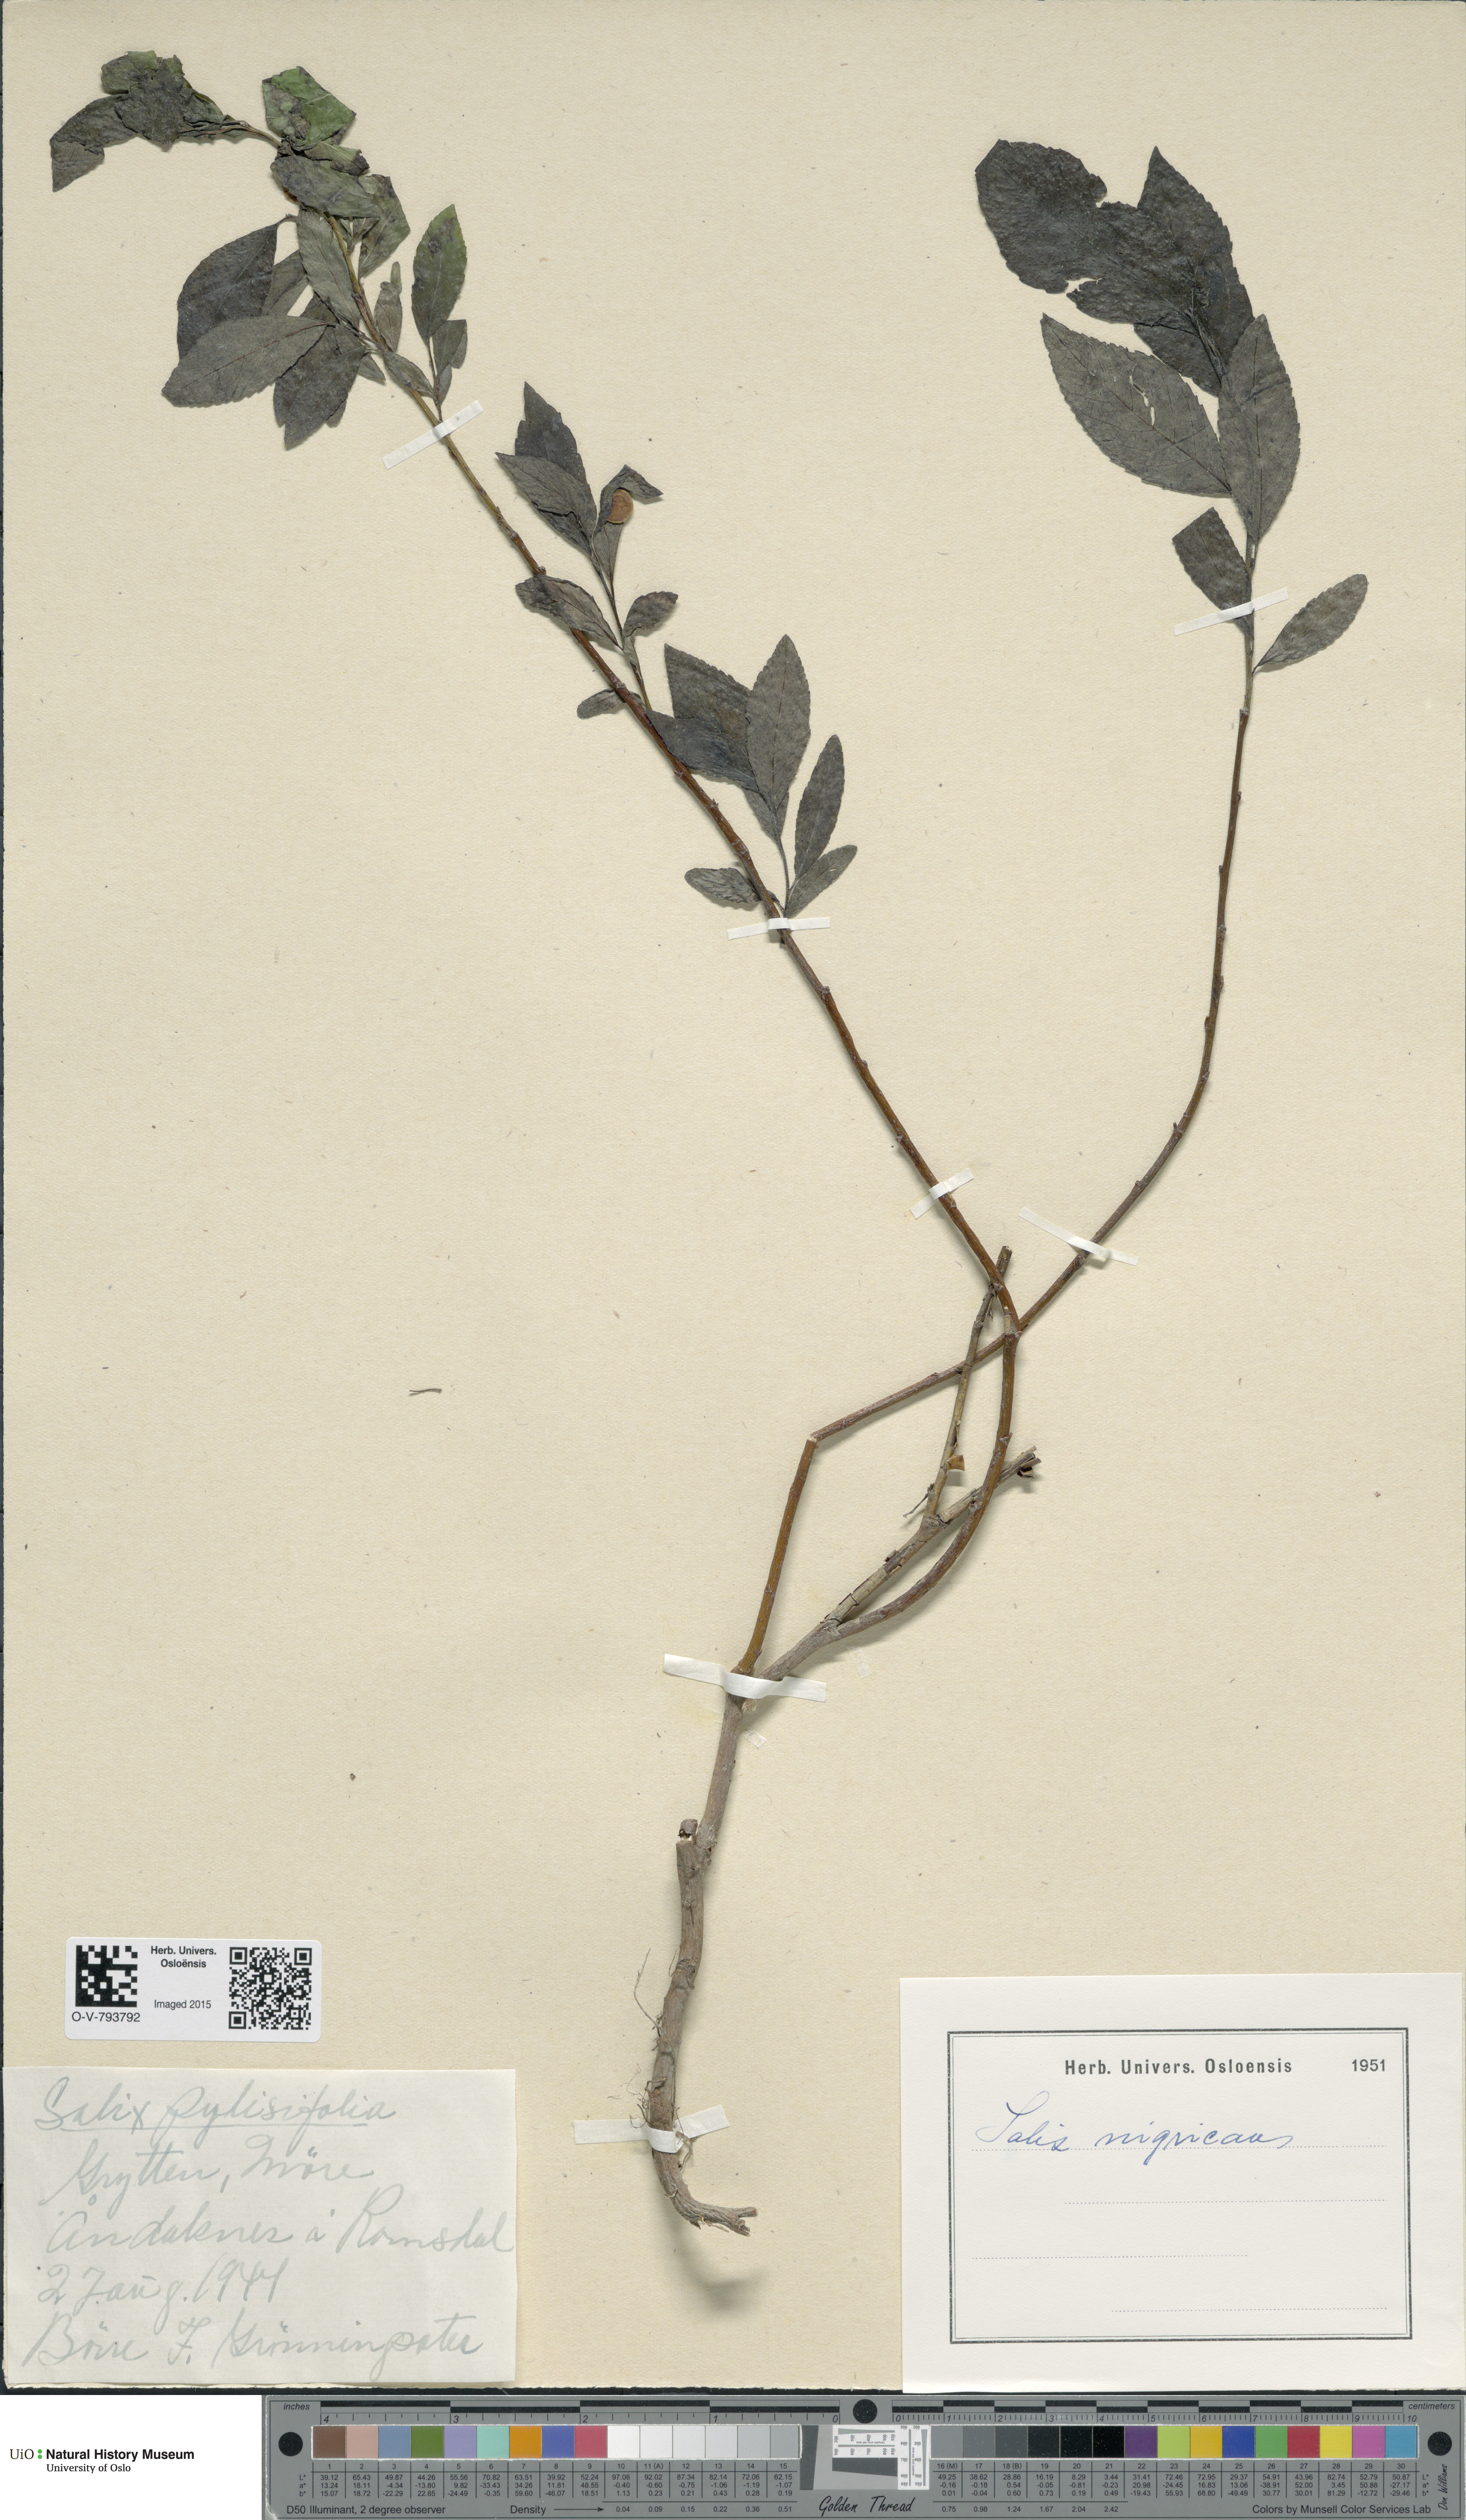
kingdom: Plantae
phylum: Tracheophyta
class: Magnoliopsida
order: Malpighiales
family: Salicaceae
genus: Salix
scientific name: Salix myrsinifolia
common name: Dark-leaved willow
